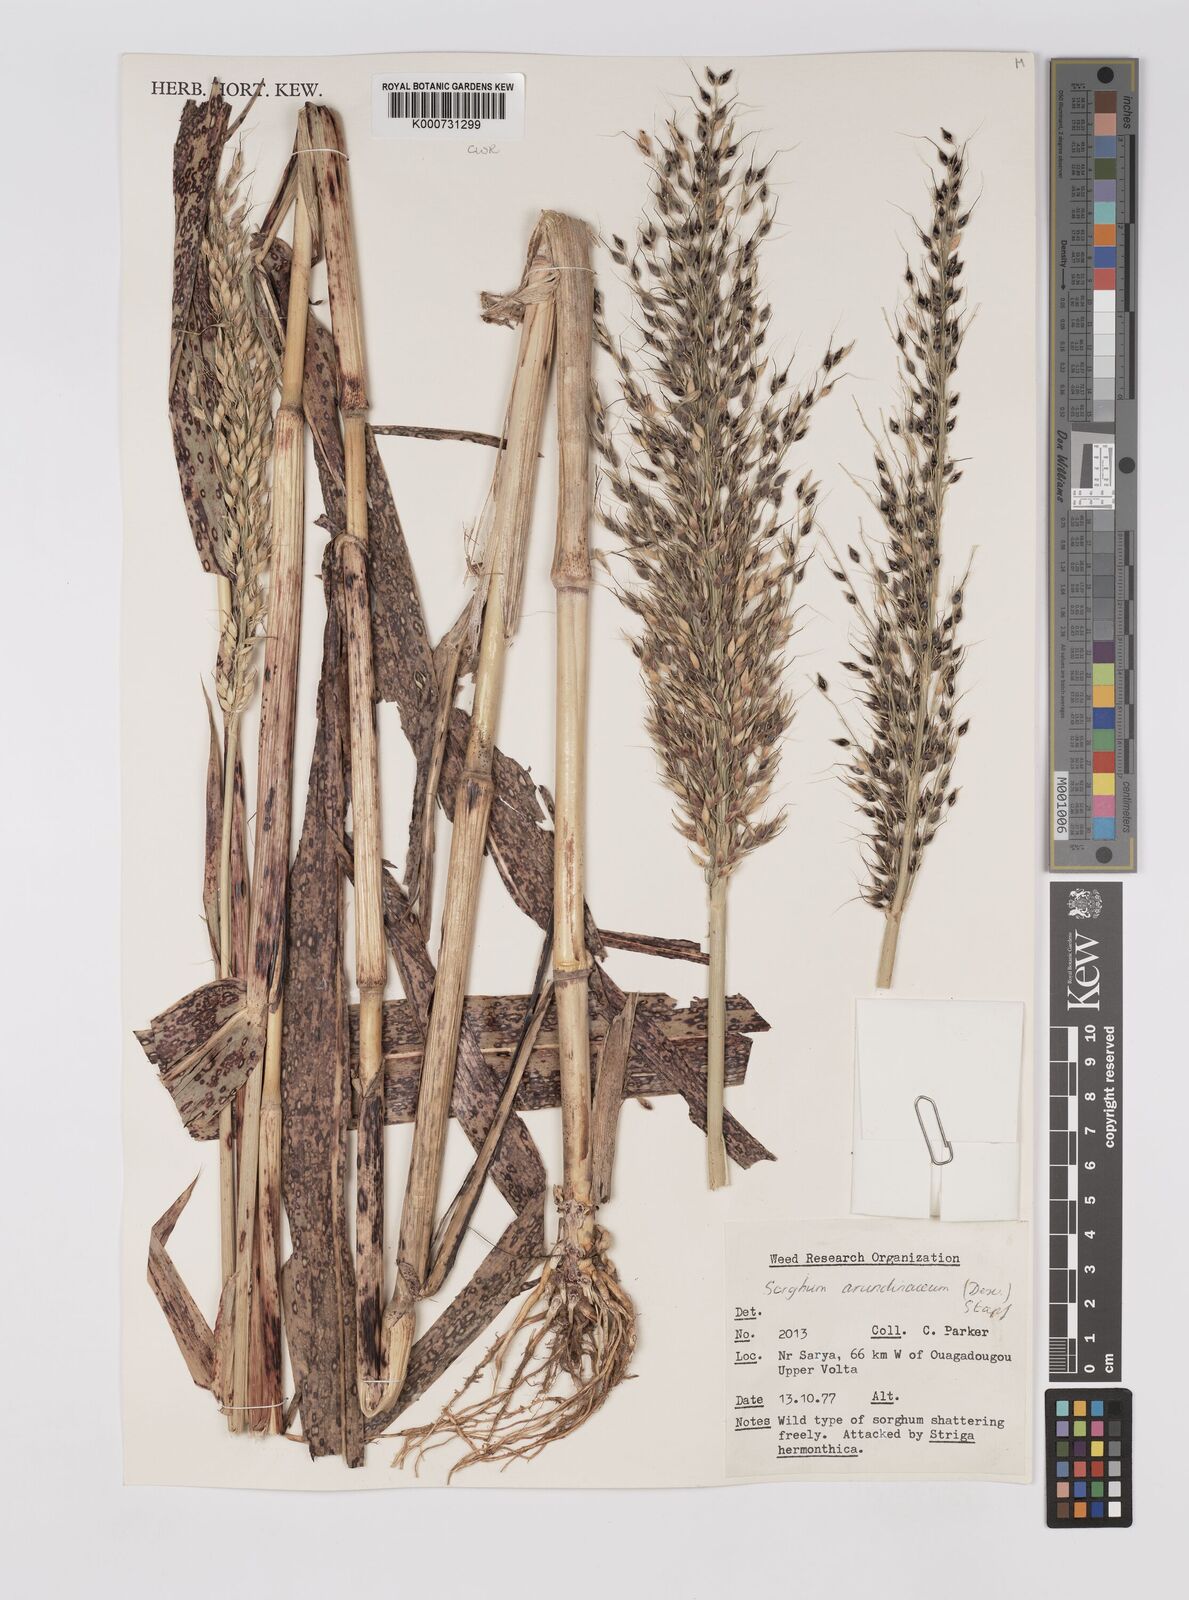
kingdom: Plantae
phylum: Tracheophyta
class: Liliopsida
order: Poales
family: Poaceae
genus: Sorghum
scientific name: Sorghum arundinaceum
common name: Sorghum
